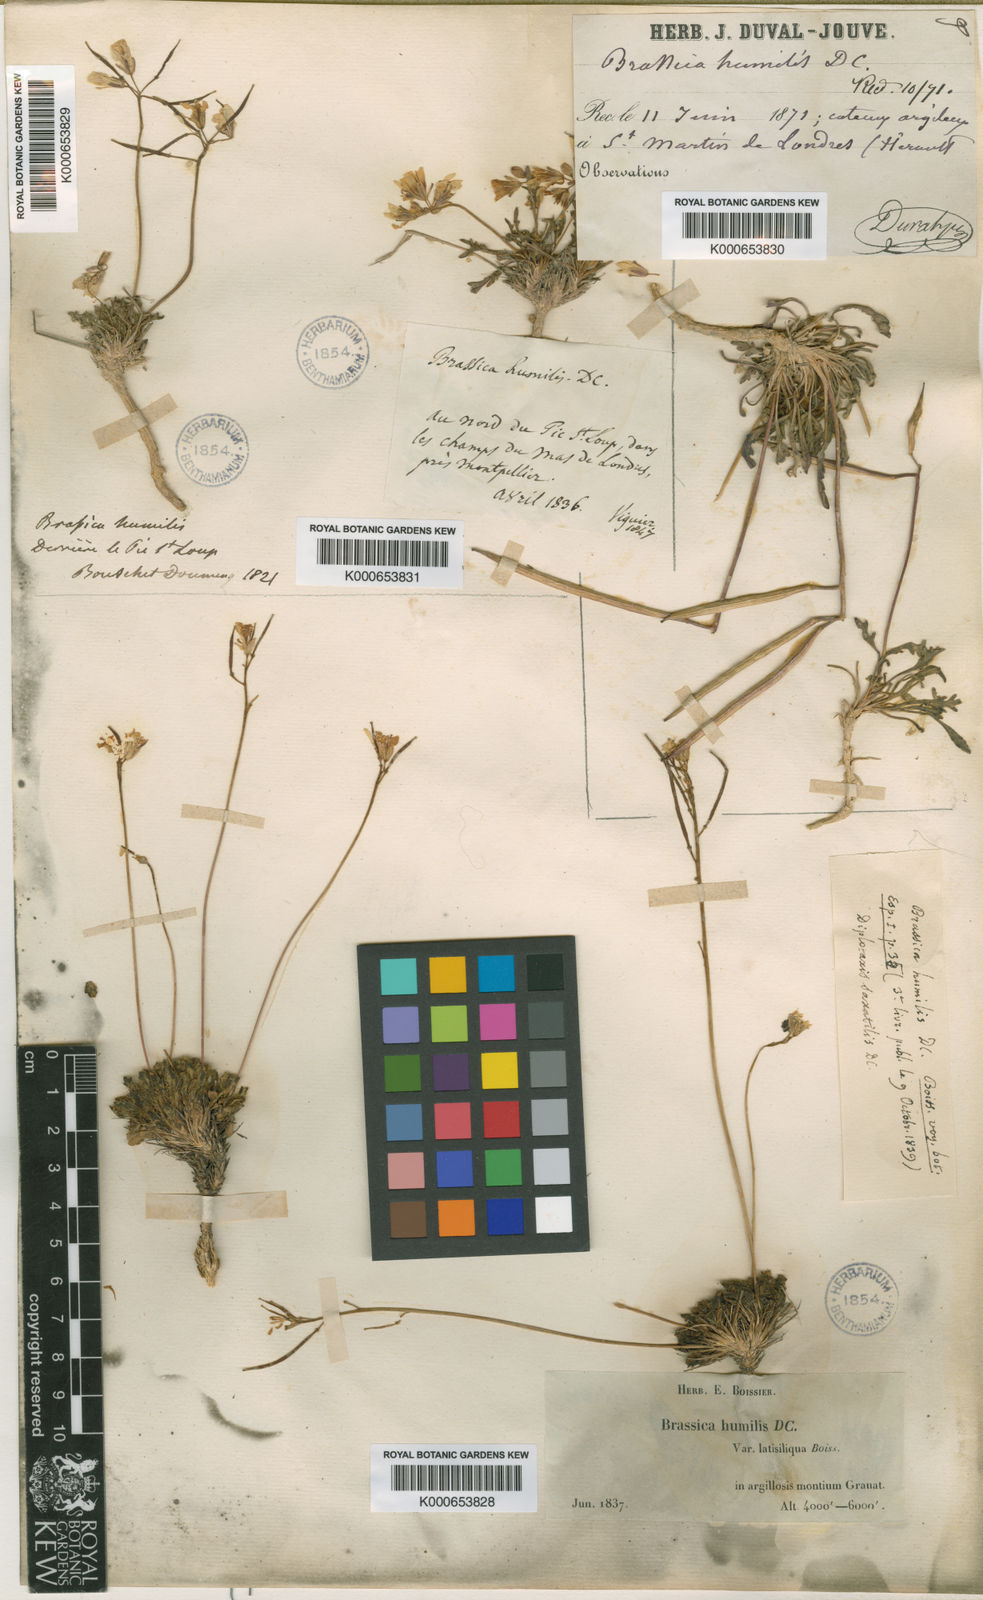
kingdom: Plantae
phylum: Tracheophyta
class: Magnoliopsida
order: Brassicales
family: Brassicaceae
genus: Brassica
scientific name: Brassica repanda
